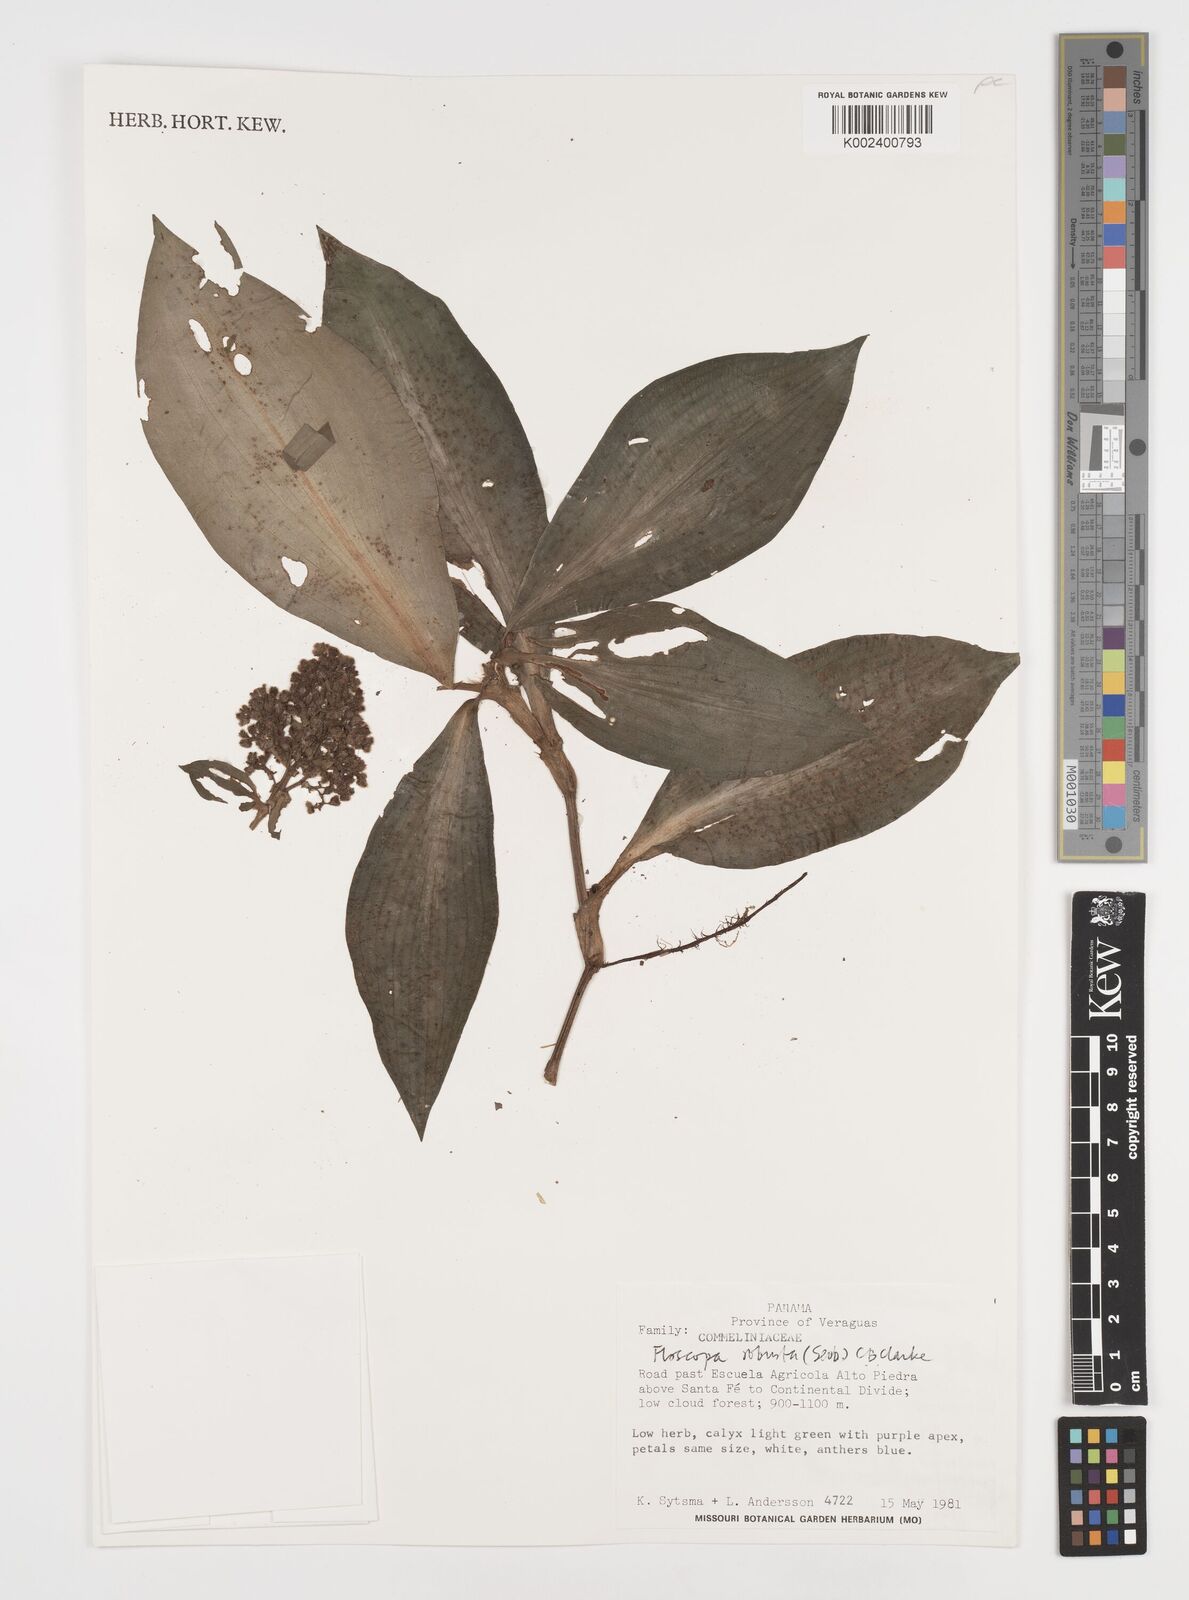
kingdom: Plantae
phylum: Tracheophyta
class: Liliopsida
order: Commelinales
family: Commelinaceae
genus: Floscopa
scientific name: Floscopa robusta
